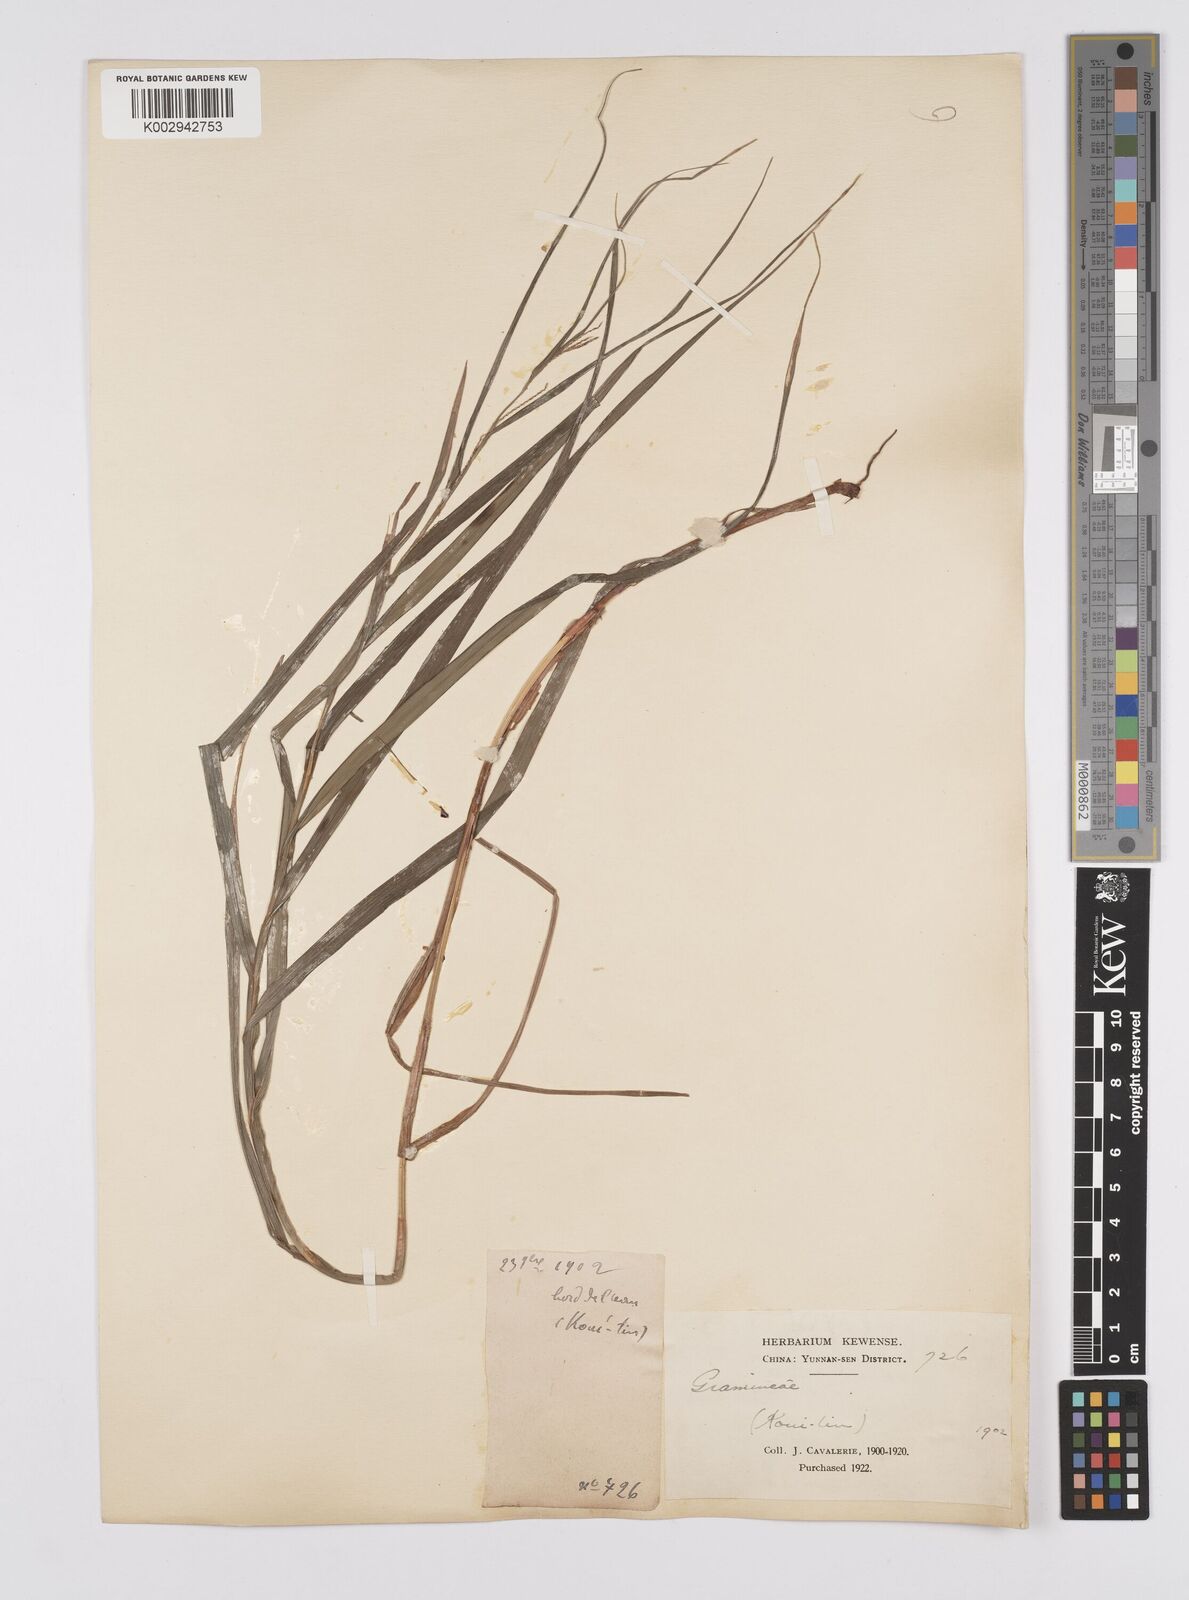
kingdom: Plantae
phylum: Tracheophyta
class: Liliopsida
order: Poales
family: Cyperaceae
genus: Carex
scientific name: Carex maubertiana
